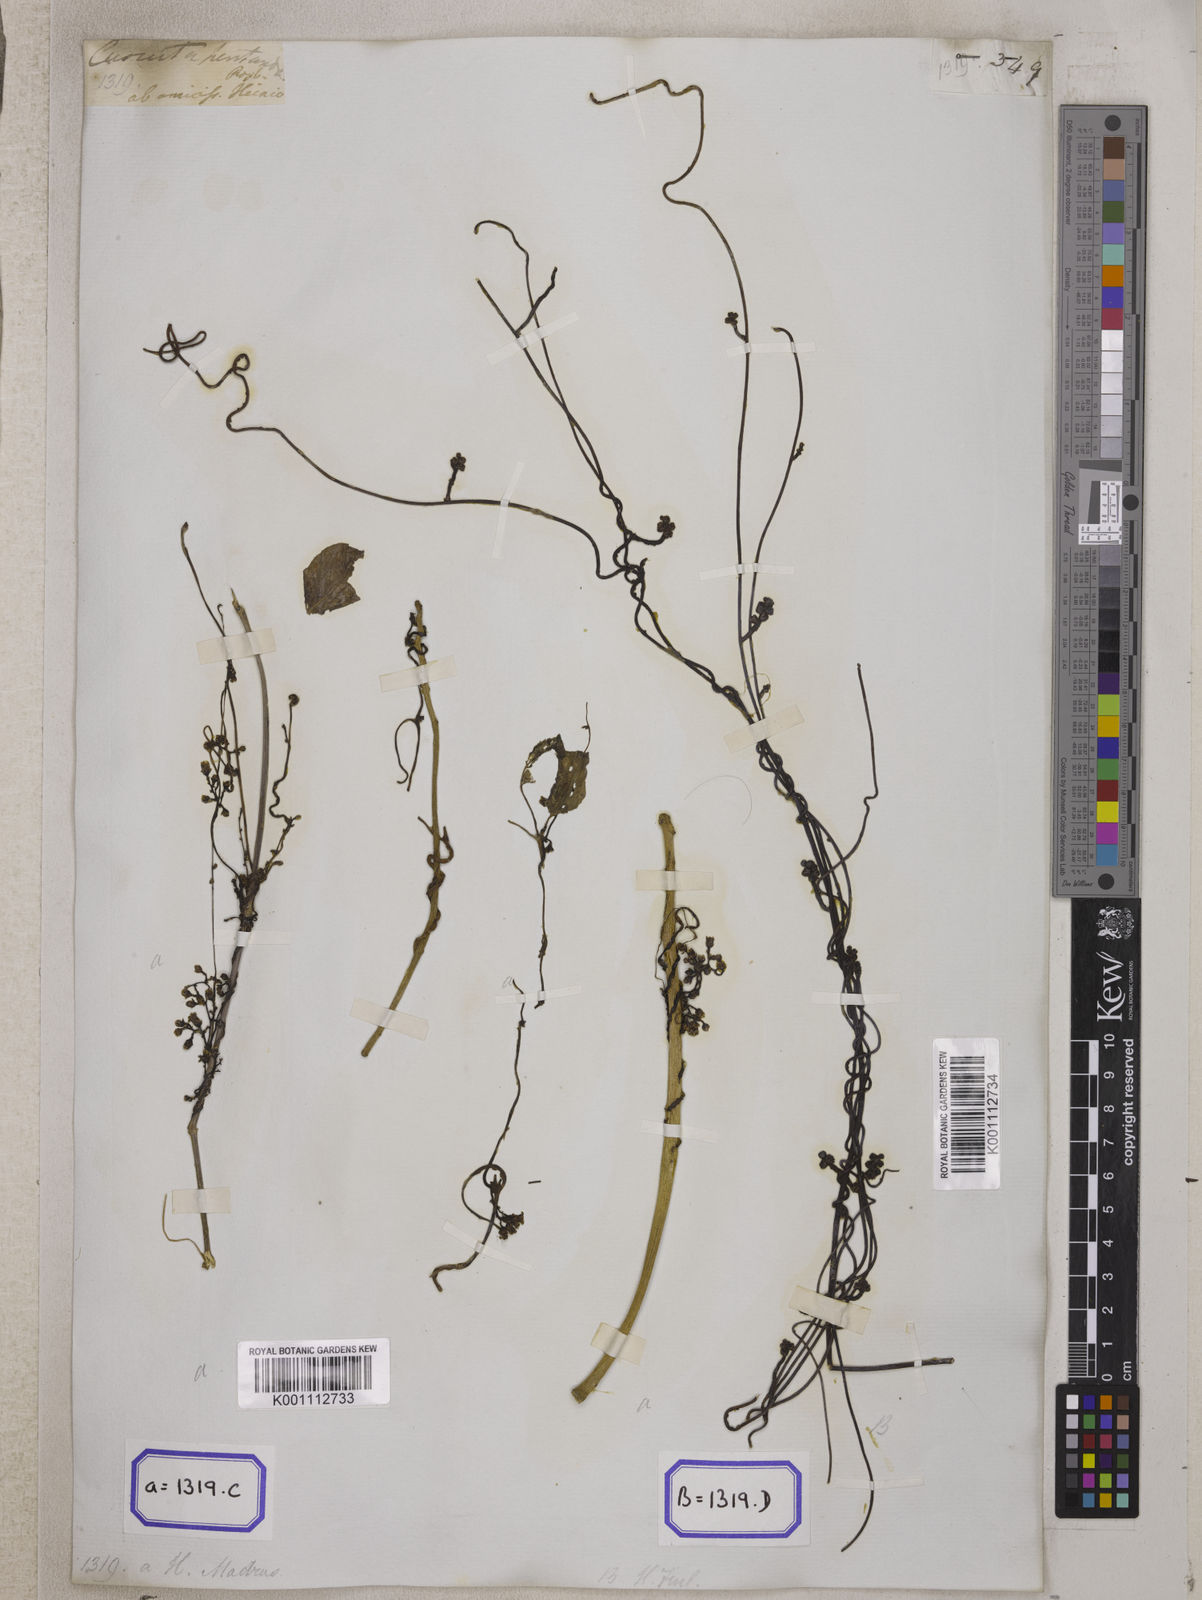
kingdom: Plantae
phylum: Tracheophyta
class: Magnoliopsida
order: Solanales
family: Convolvulaceae
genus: Cuscuta
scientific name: Cuscuta reflexa
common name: Giant dodder
